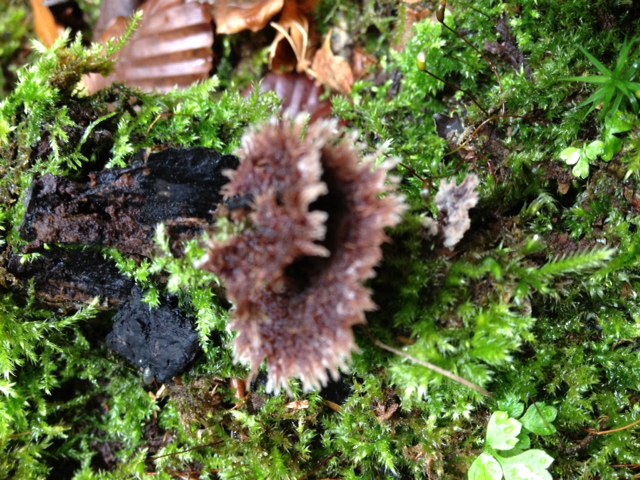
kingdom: Fungi
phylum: Basidiomycota
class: Agaricomycetes
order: Thelephorales
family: Thelephoraceae
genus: Thelephora
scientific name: Thelephora penicillata
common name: fladtrådt frynsesvamp
